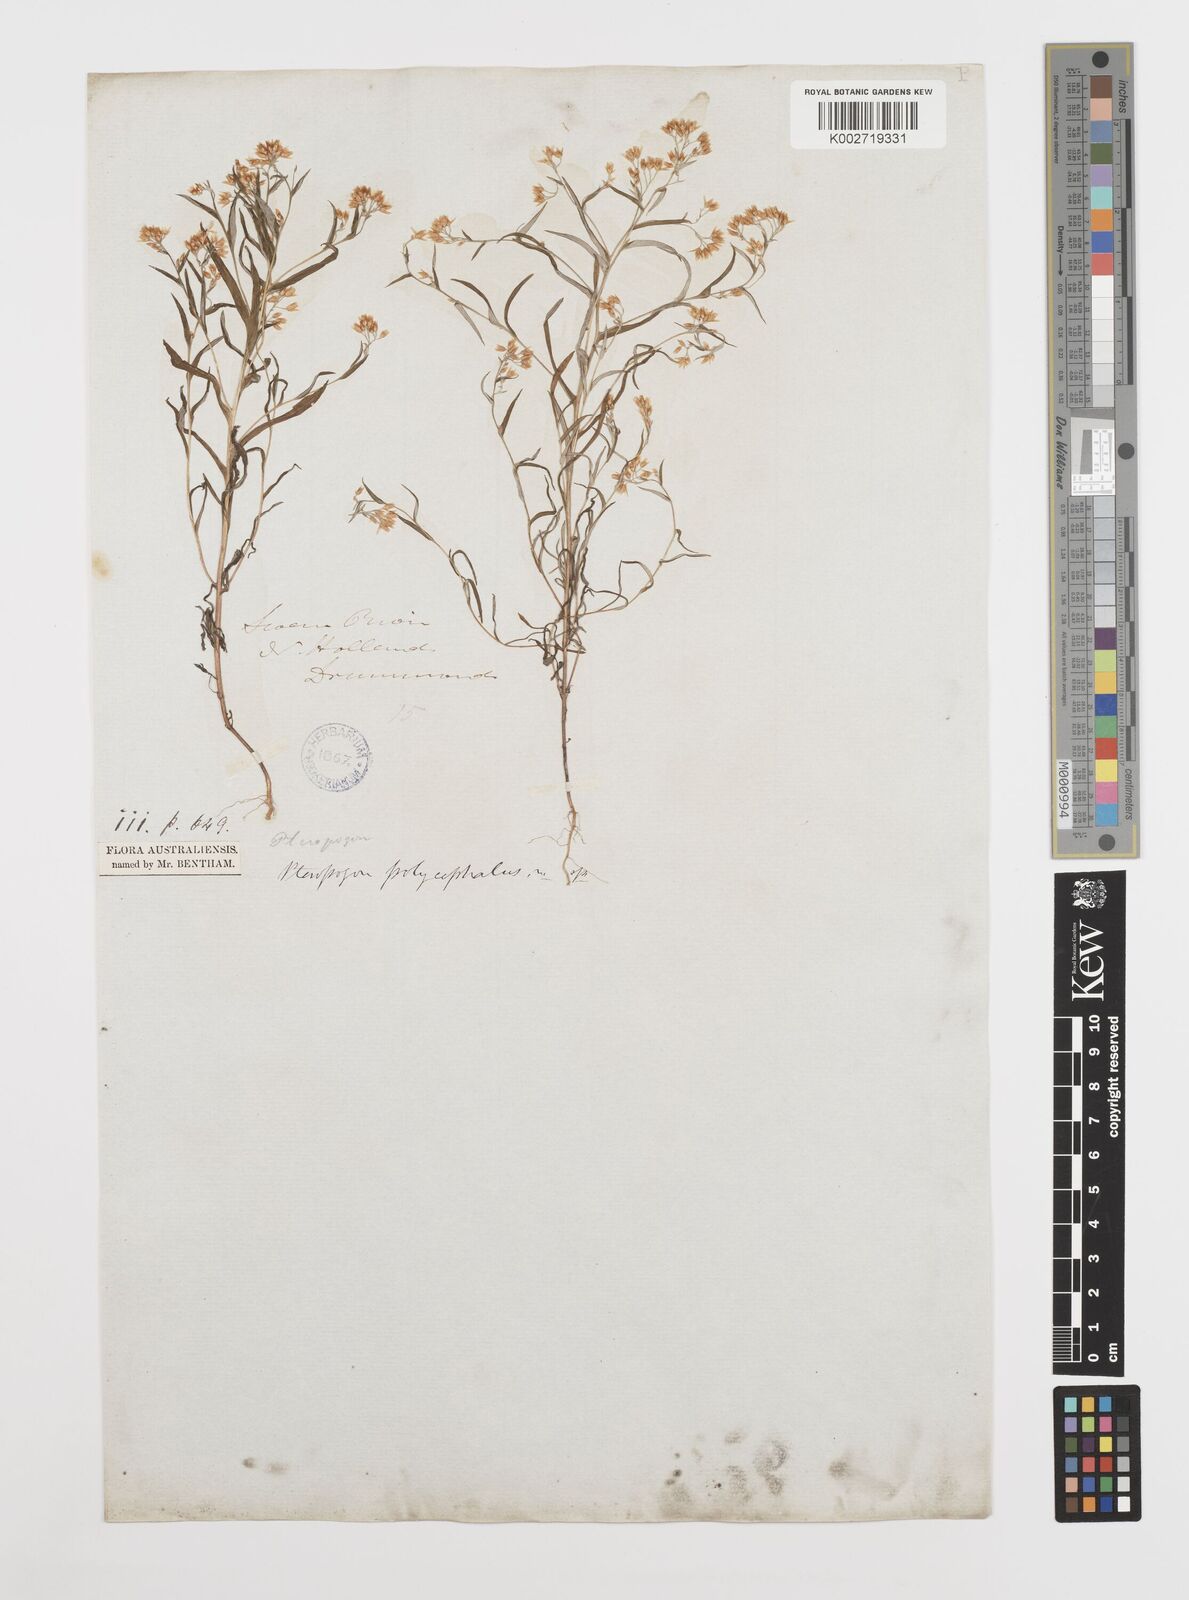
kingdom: Plantae
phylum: Tracheophyta
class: Magnoliopsida
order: Asterales
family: Asteraceae
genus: Rhodanthe
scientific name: Rhodanthe polycephala
